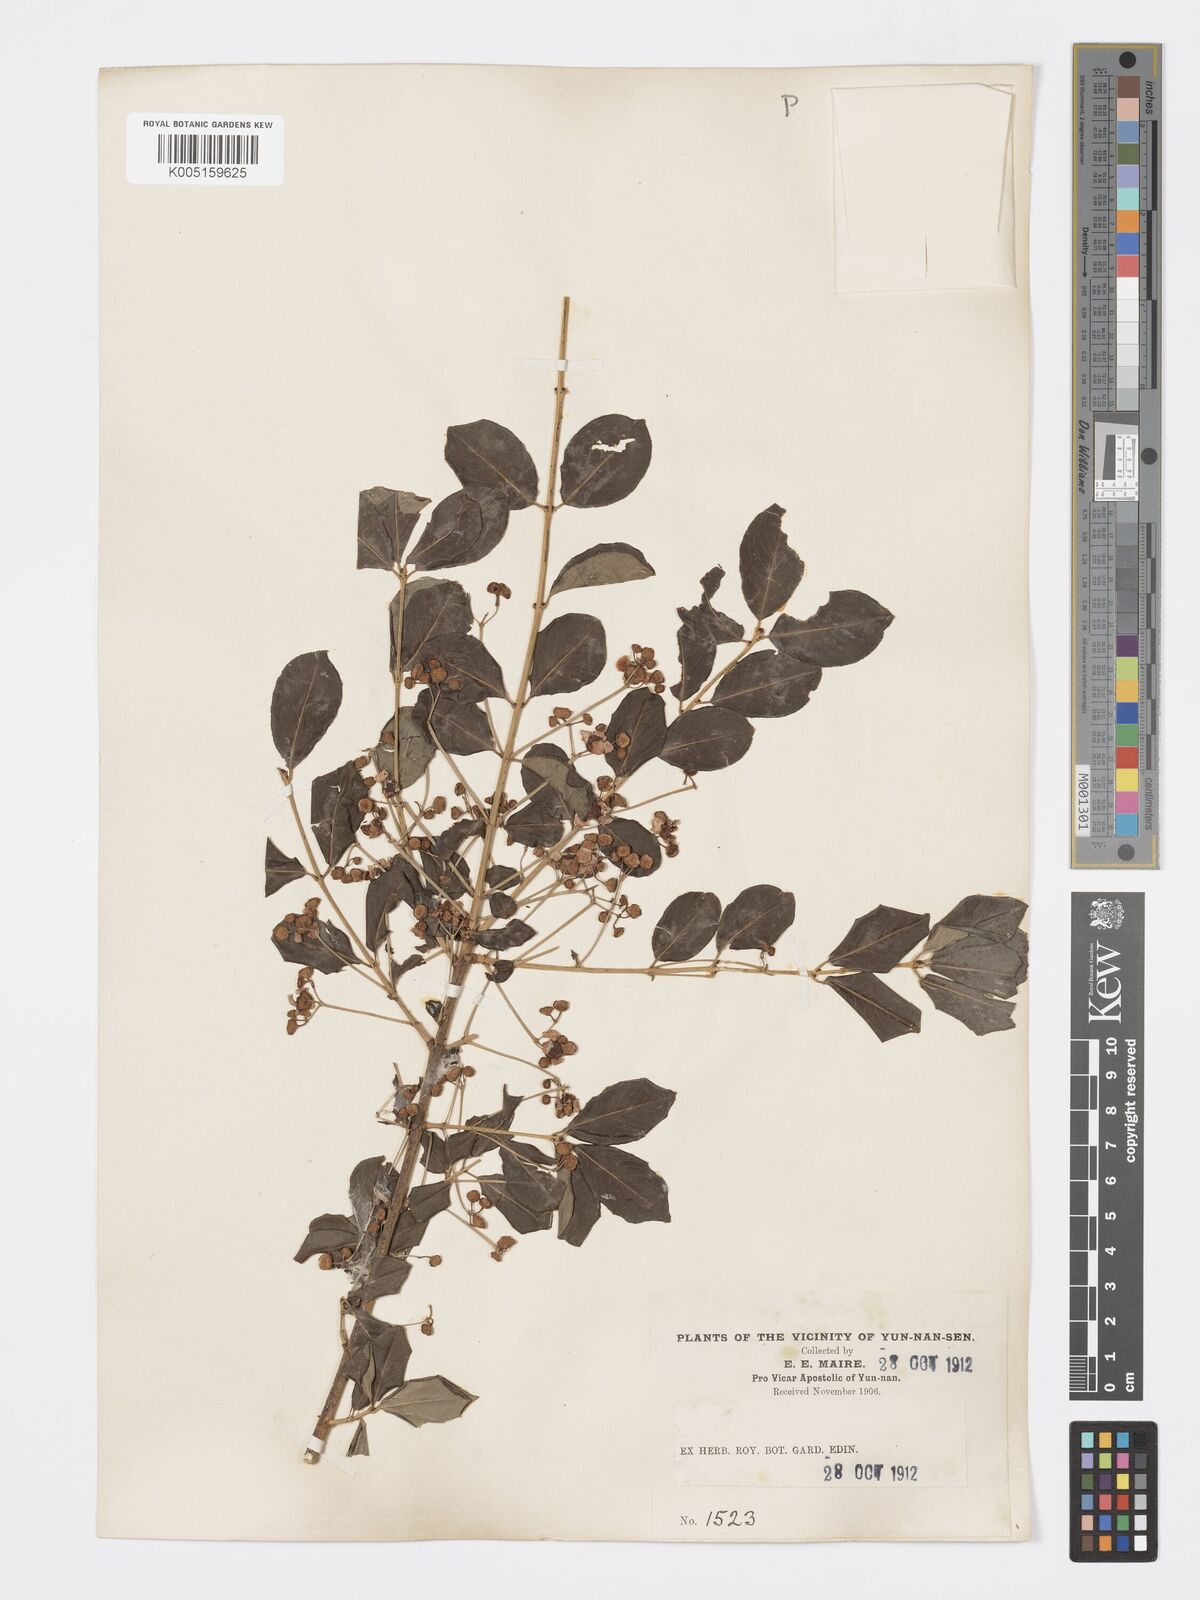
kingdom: Plantae
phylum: Tracheophyta
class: Magnoliopsida
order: Celastrales
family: Celastraceae
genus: Euonymus
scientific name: Euonymus grandiflorus
